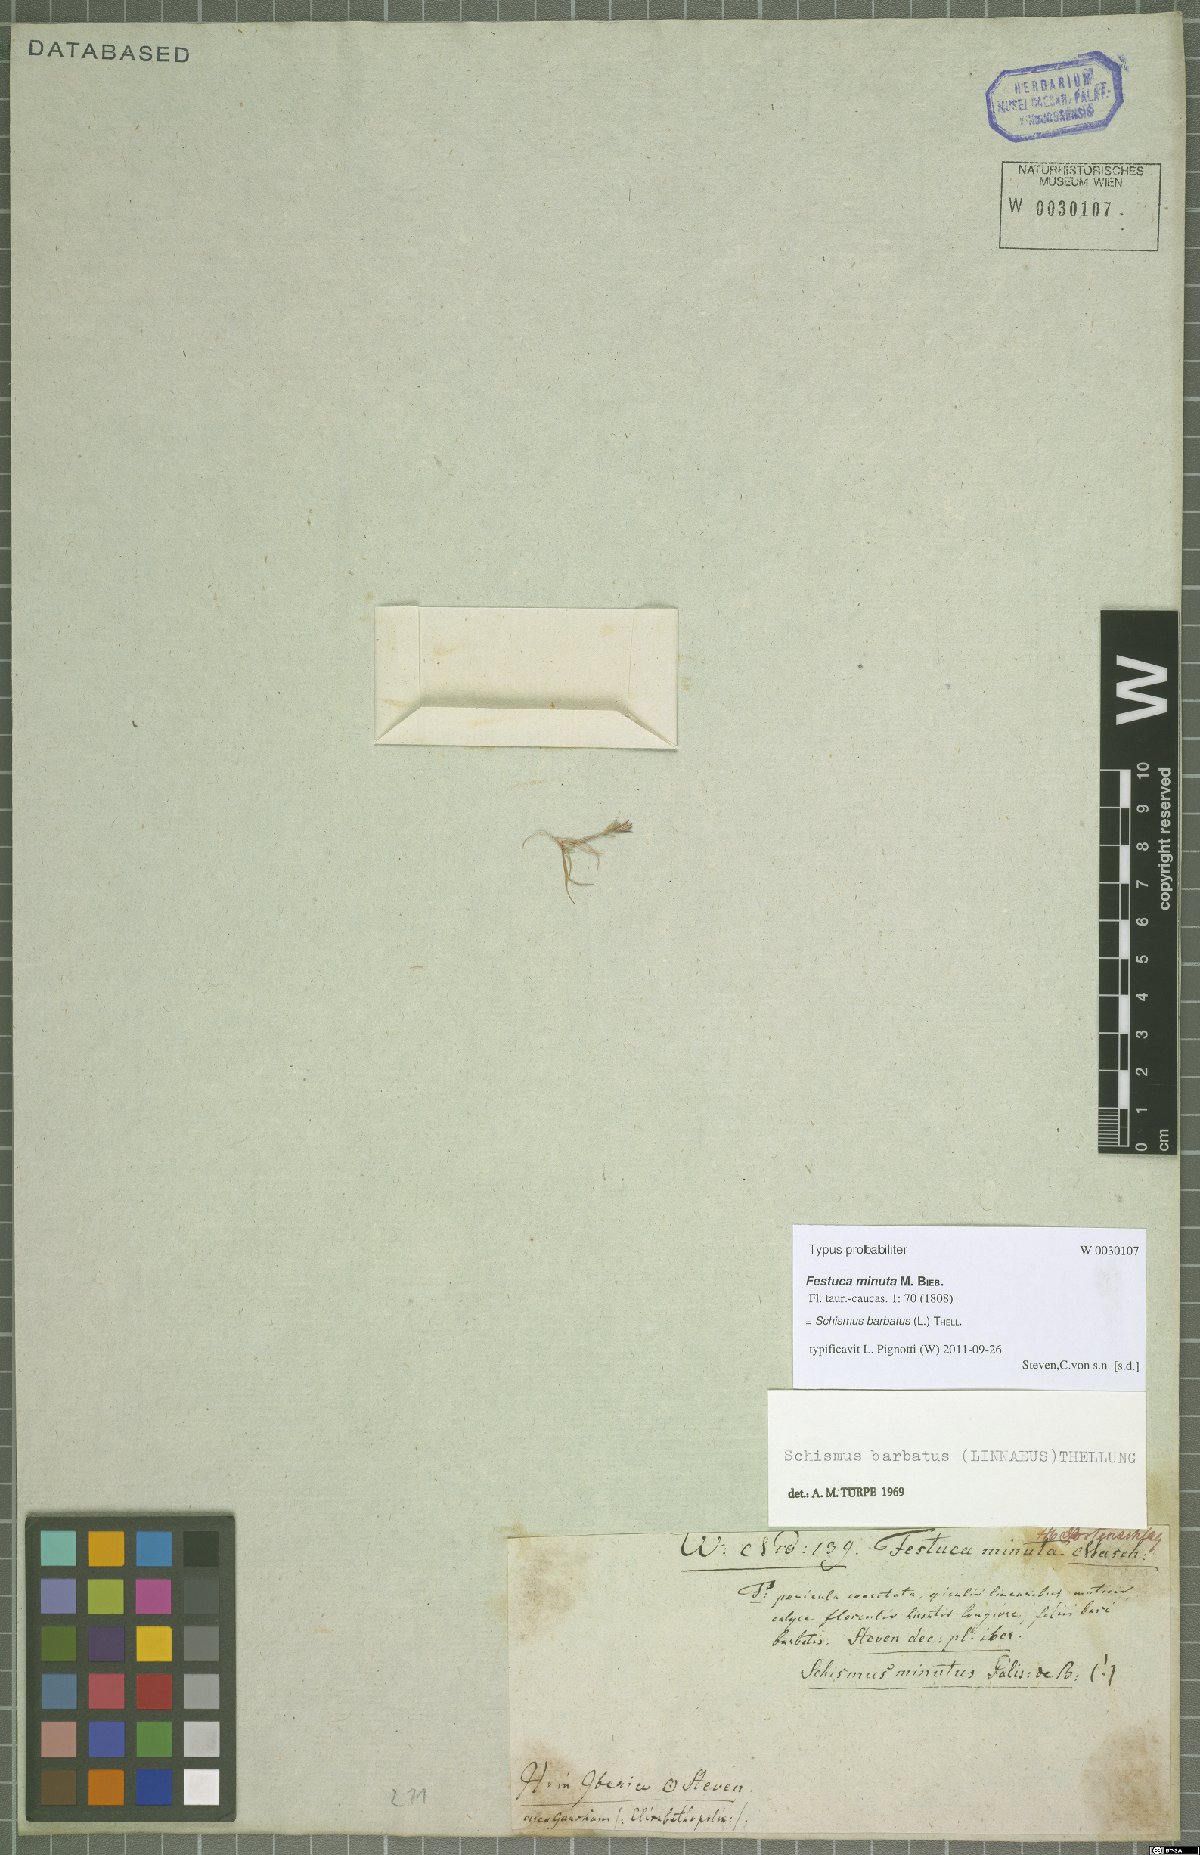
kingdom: Plantae
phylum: Tracheophyta
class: Liliopsida
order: Poales
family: Poaceae
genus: Schismus
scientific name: Schismus barbatus
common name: Kelch-grass
